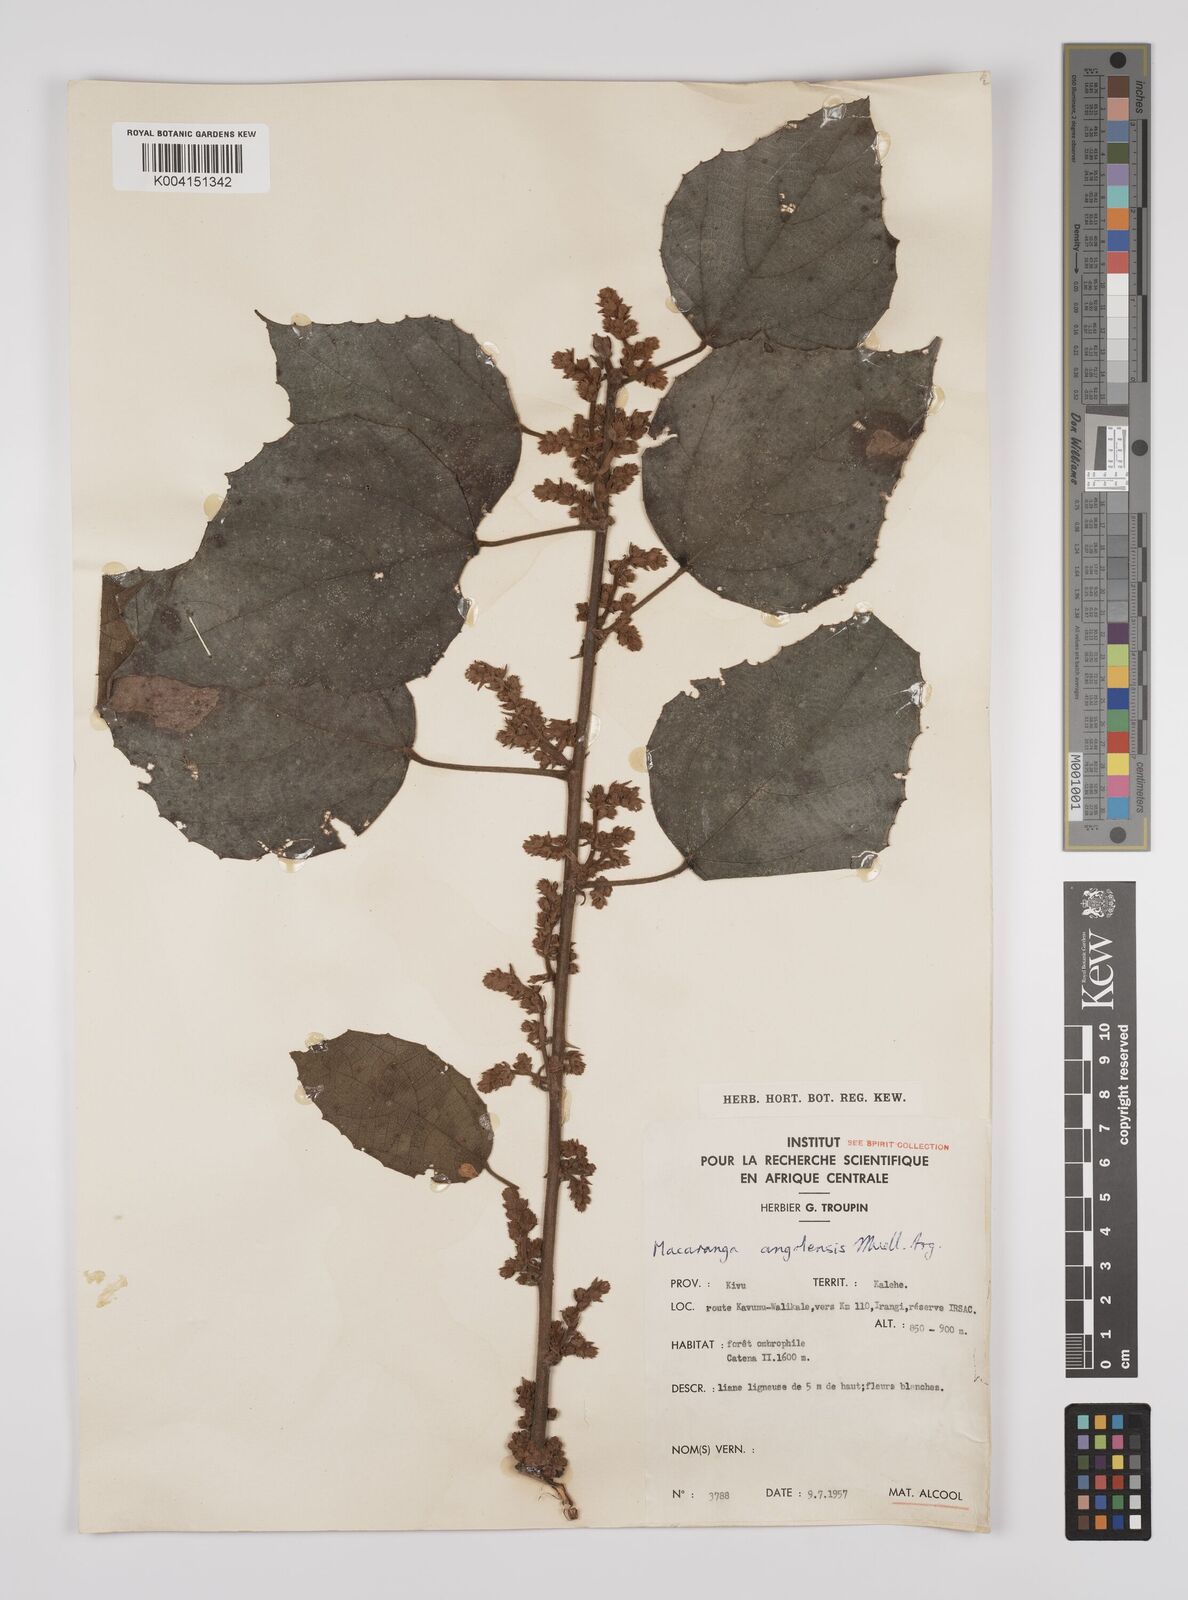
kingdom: Plantae
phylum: Tracheophyta
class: Magnoliopsida
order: Malpighiales
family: Euphorbiaceae
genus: Macaranga
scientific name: Macaranga angolensis
